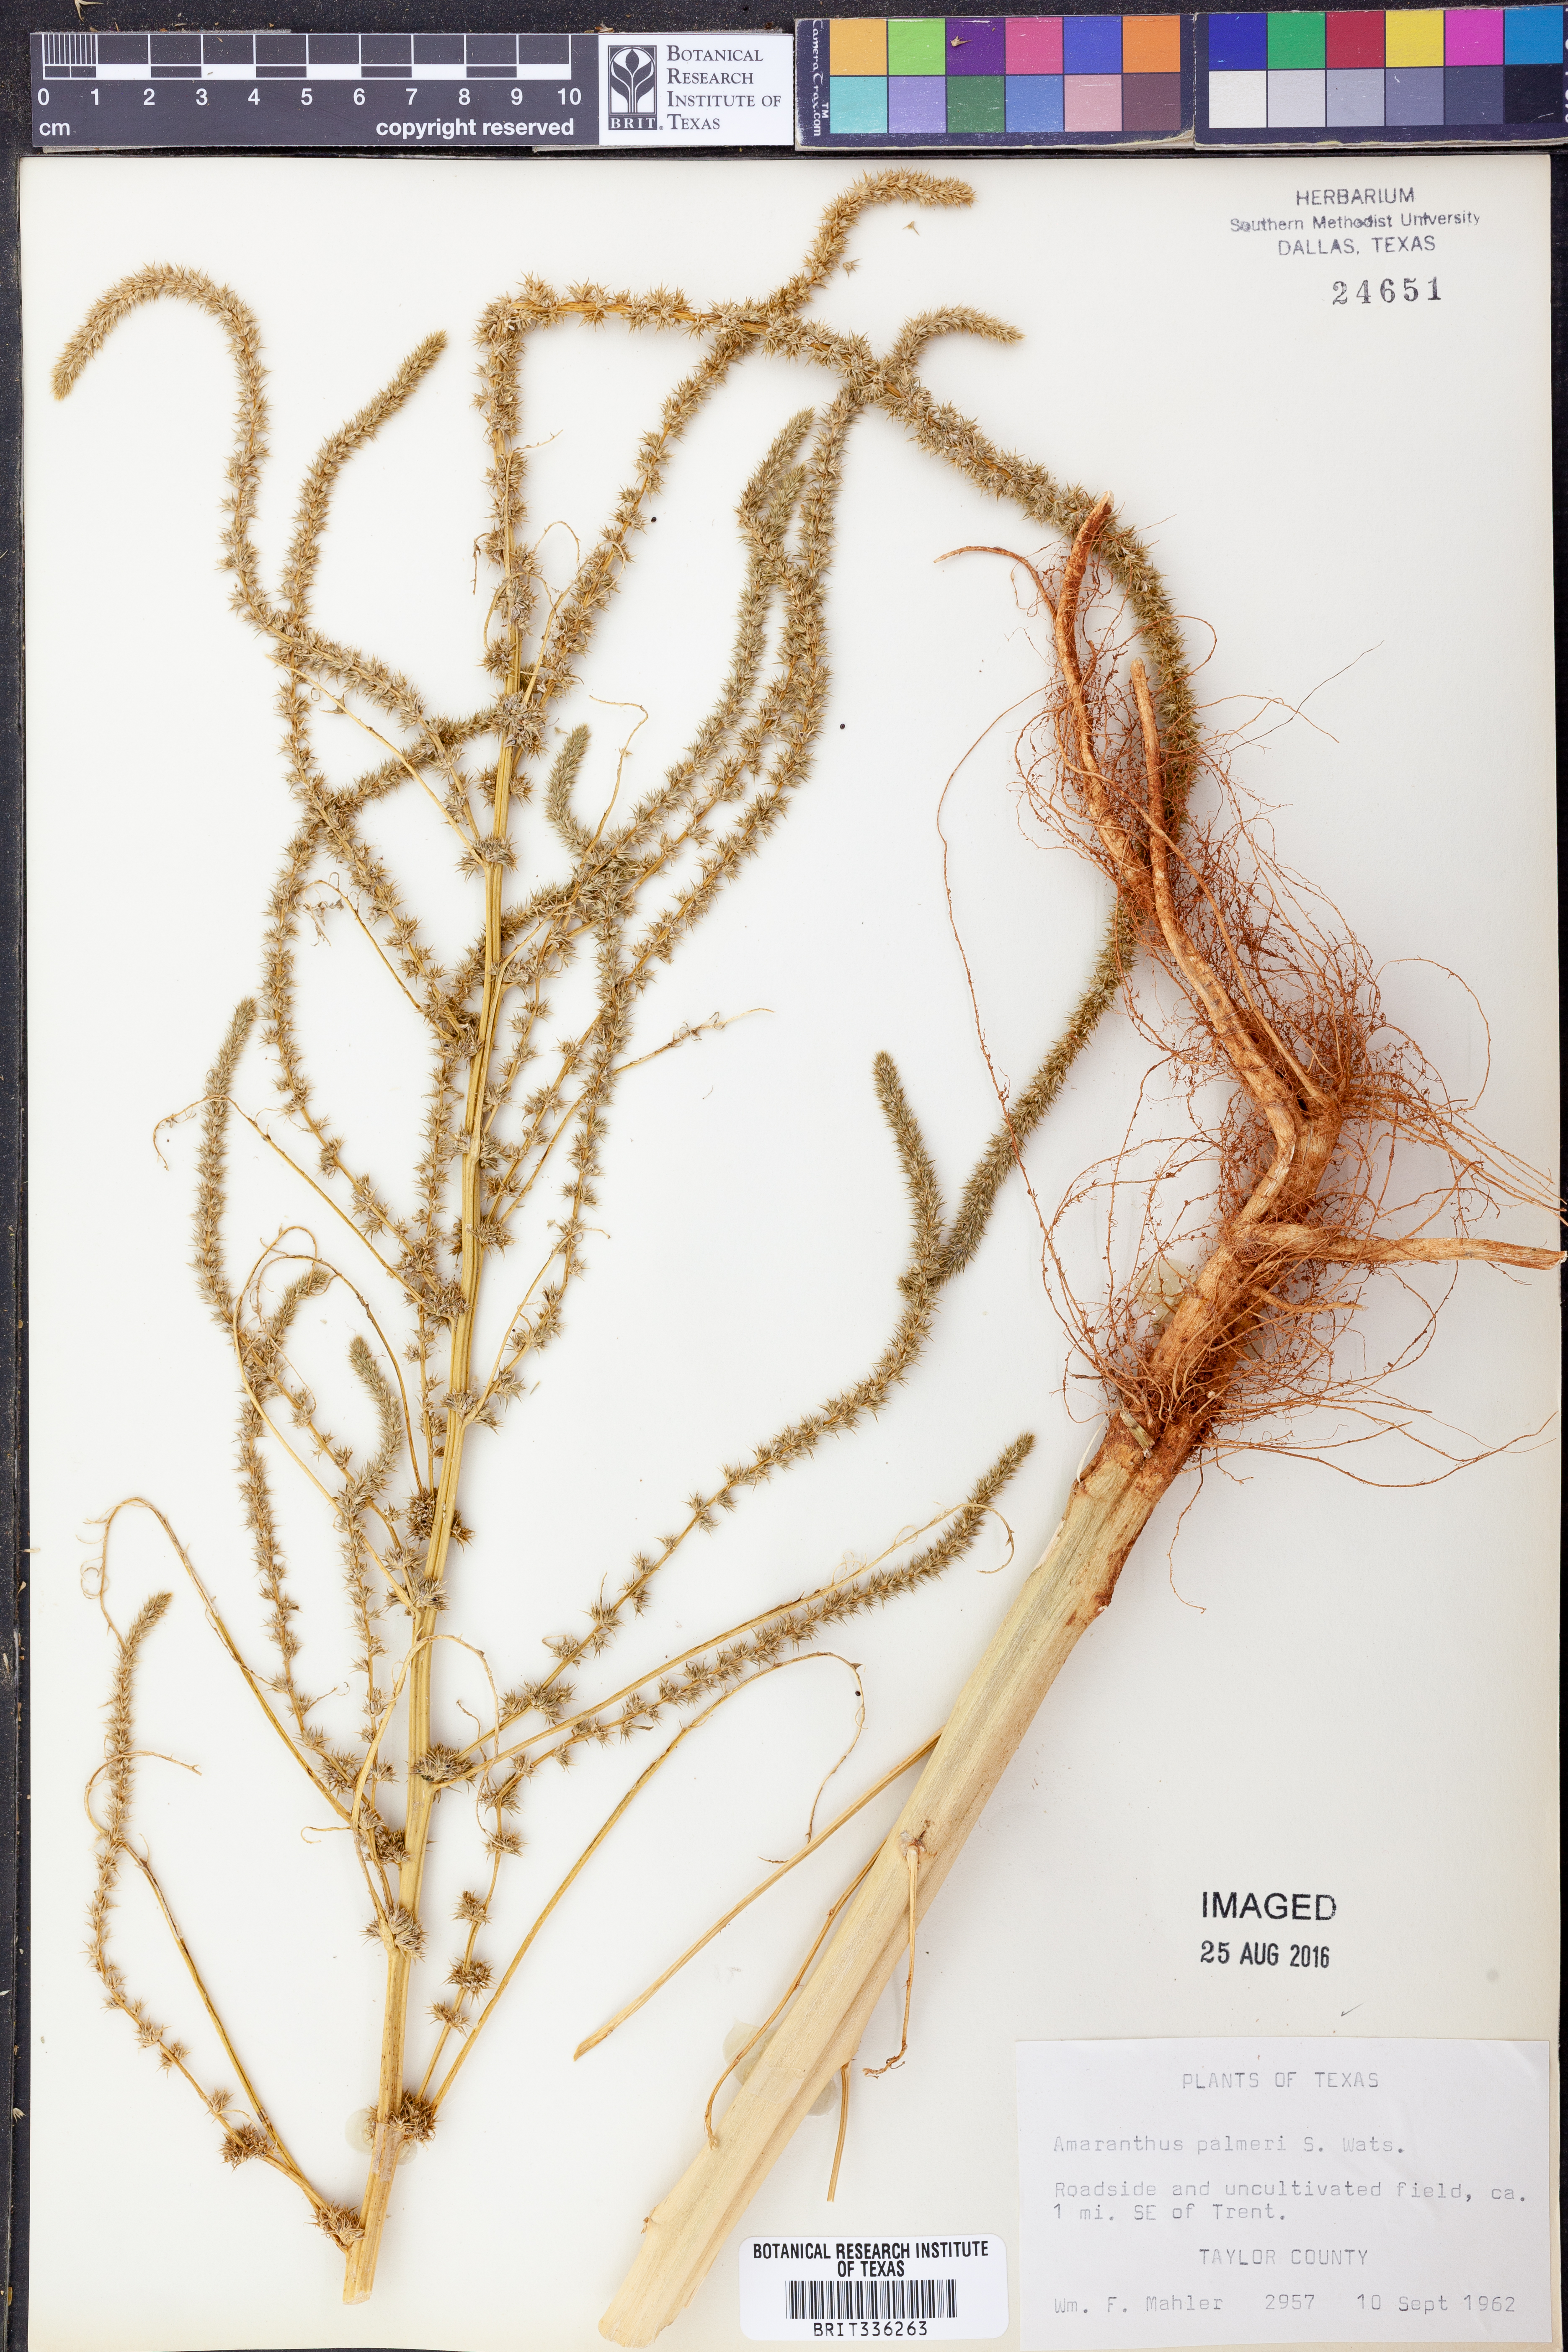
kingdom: Plantae
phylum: Tracheophyta
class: Magnoliopsida
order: Caryophyllales
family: Amaranthaceae
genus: Amaranthus
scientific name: Amaranthus palmeri
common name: Dioecious amaranth
